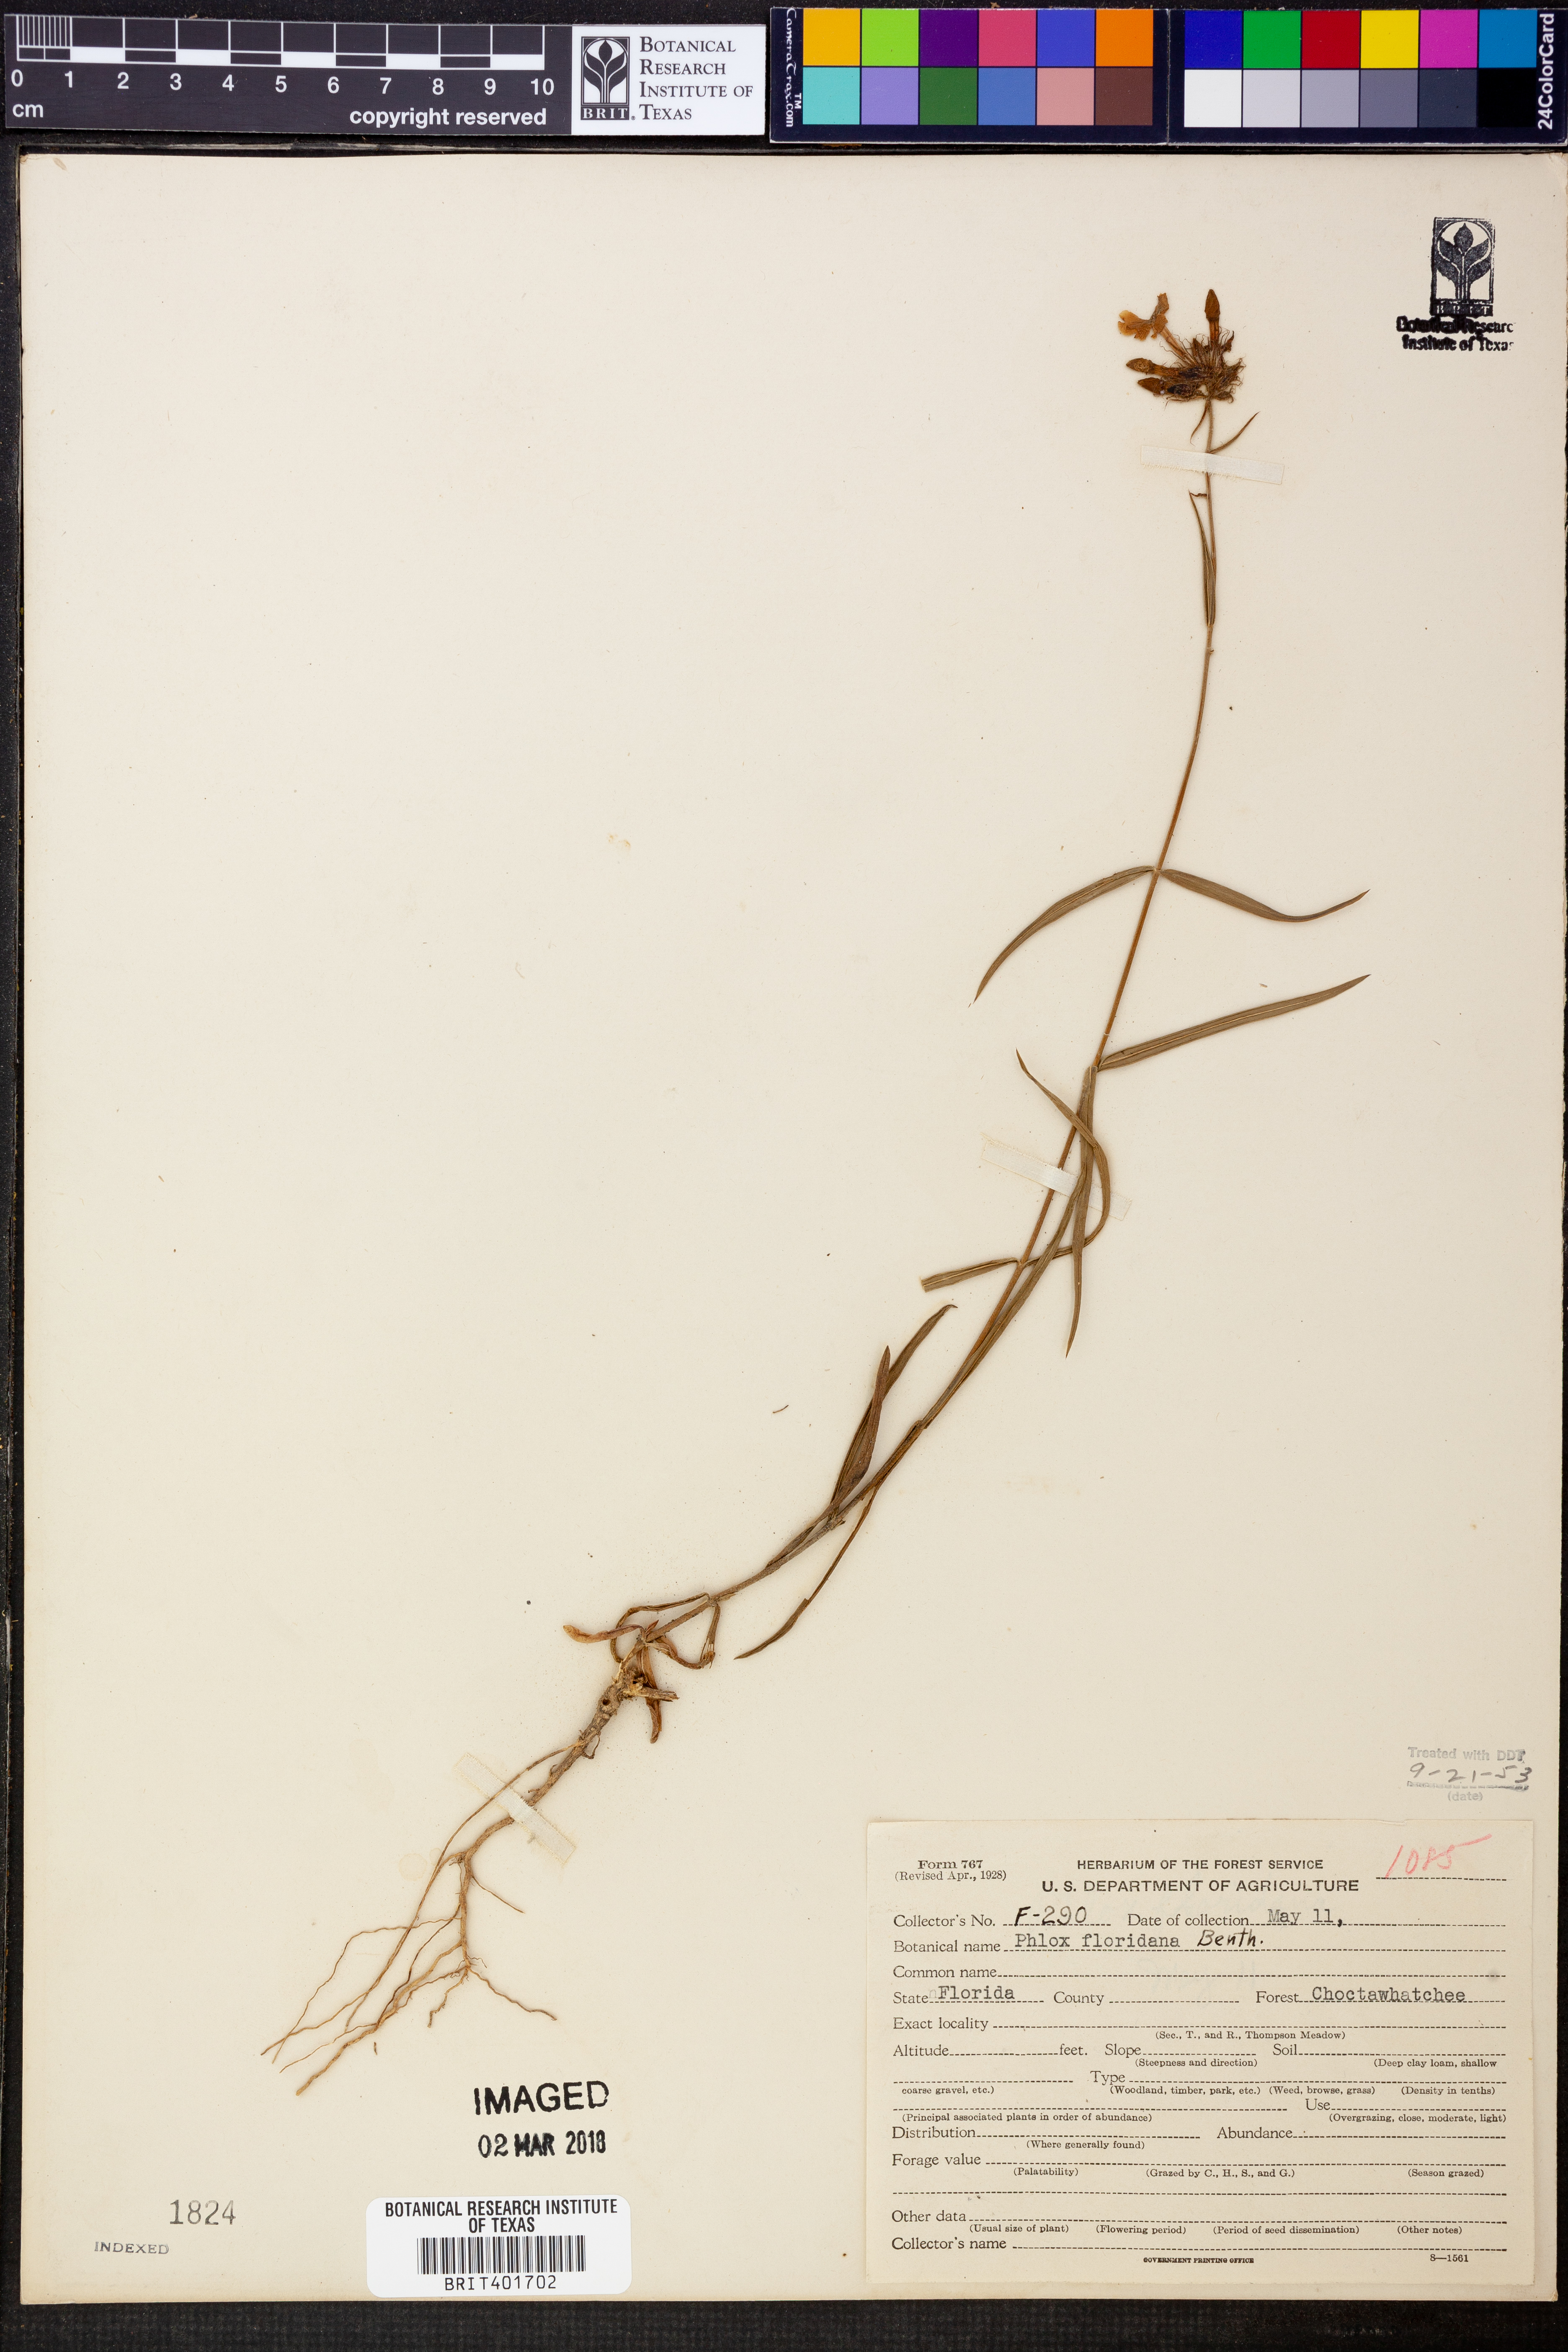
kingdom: Plantae
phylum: Tracheophyta
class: Magnoliopsida
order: Ericales
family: Polemoniaceae
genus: Phlox
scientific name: Phlox floridana
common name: Florida phlox
